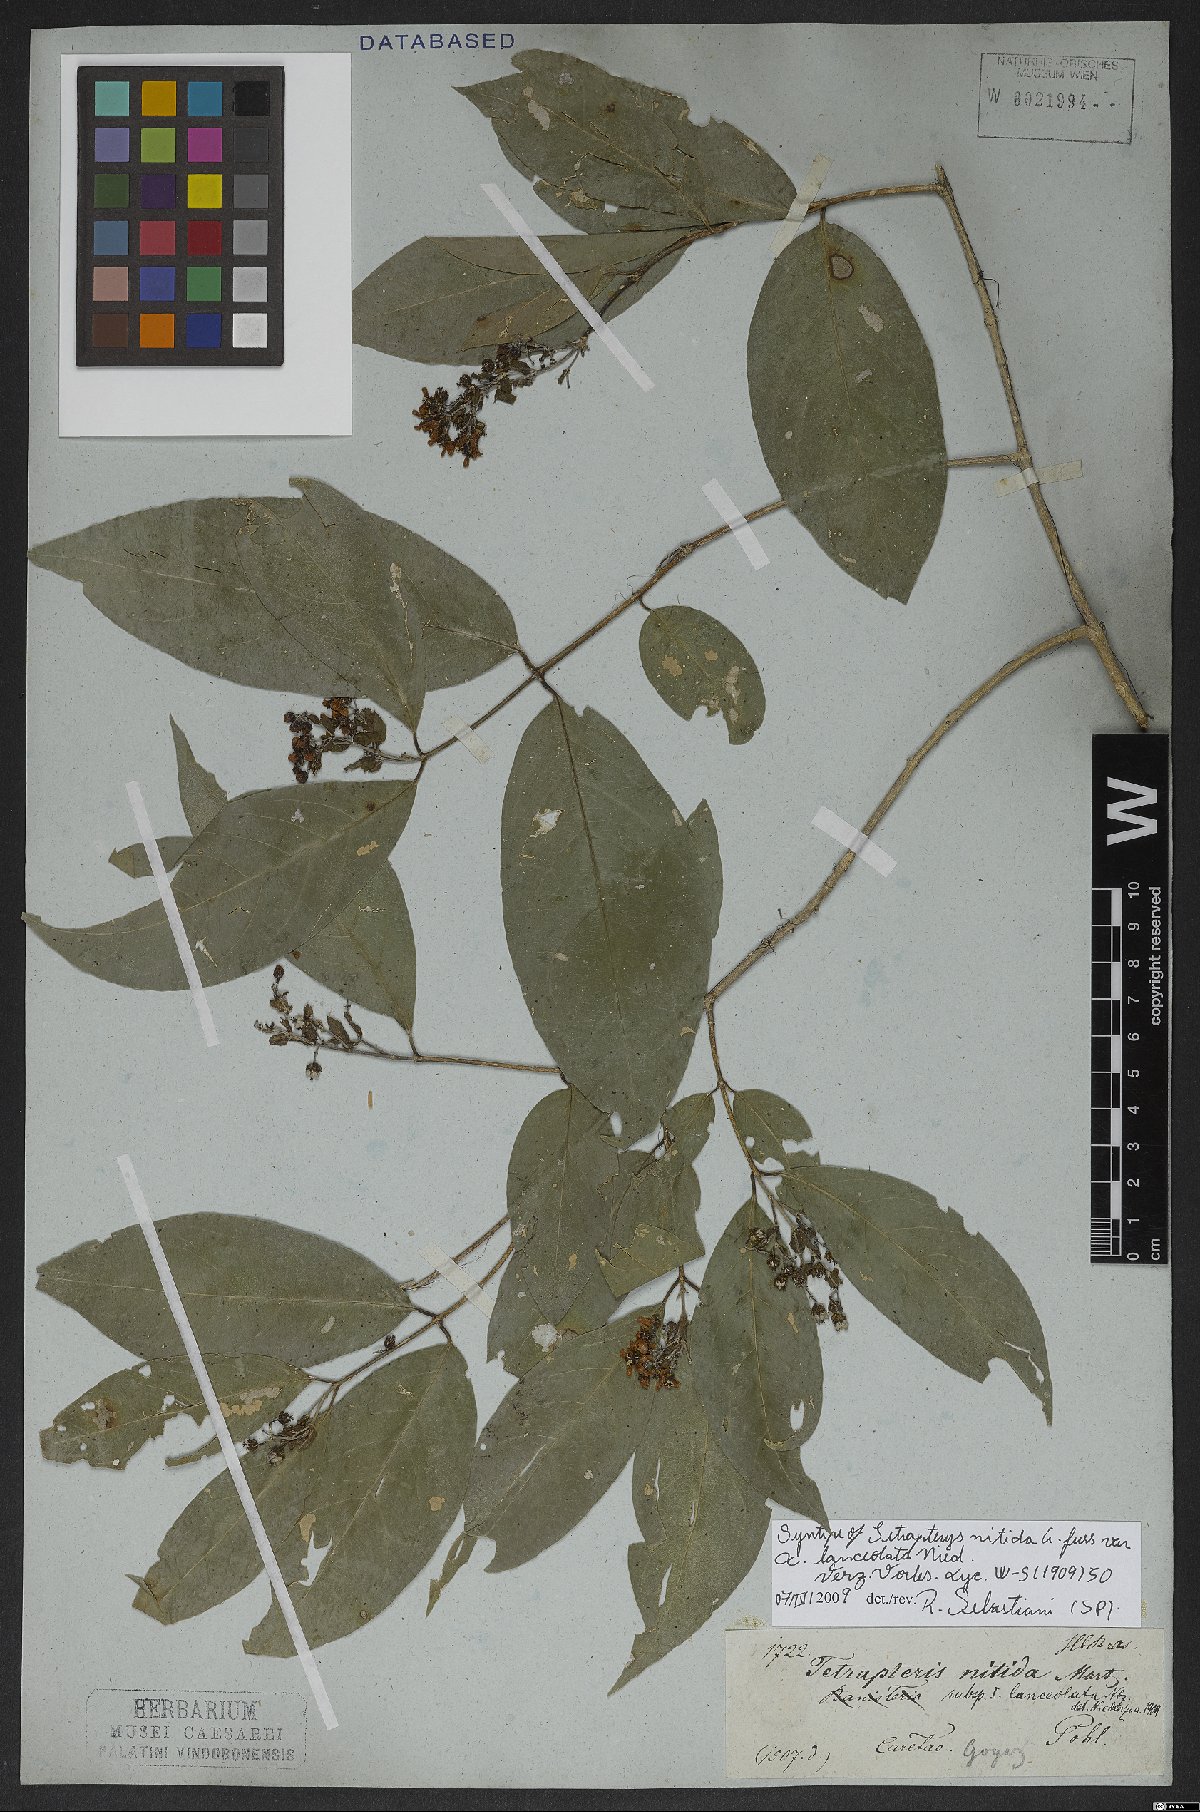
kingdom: Plantae
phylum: Tracheophyta
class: Magnoliopsida
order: Malpighiales
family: Malpighiaceae
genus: Tetrapterys
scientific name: Tetrapterys nitida
